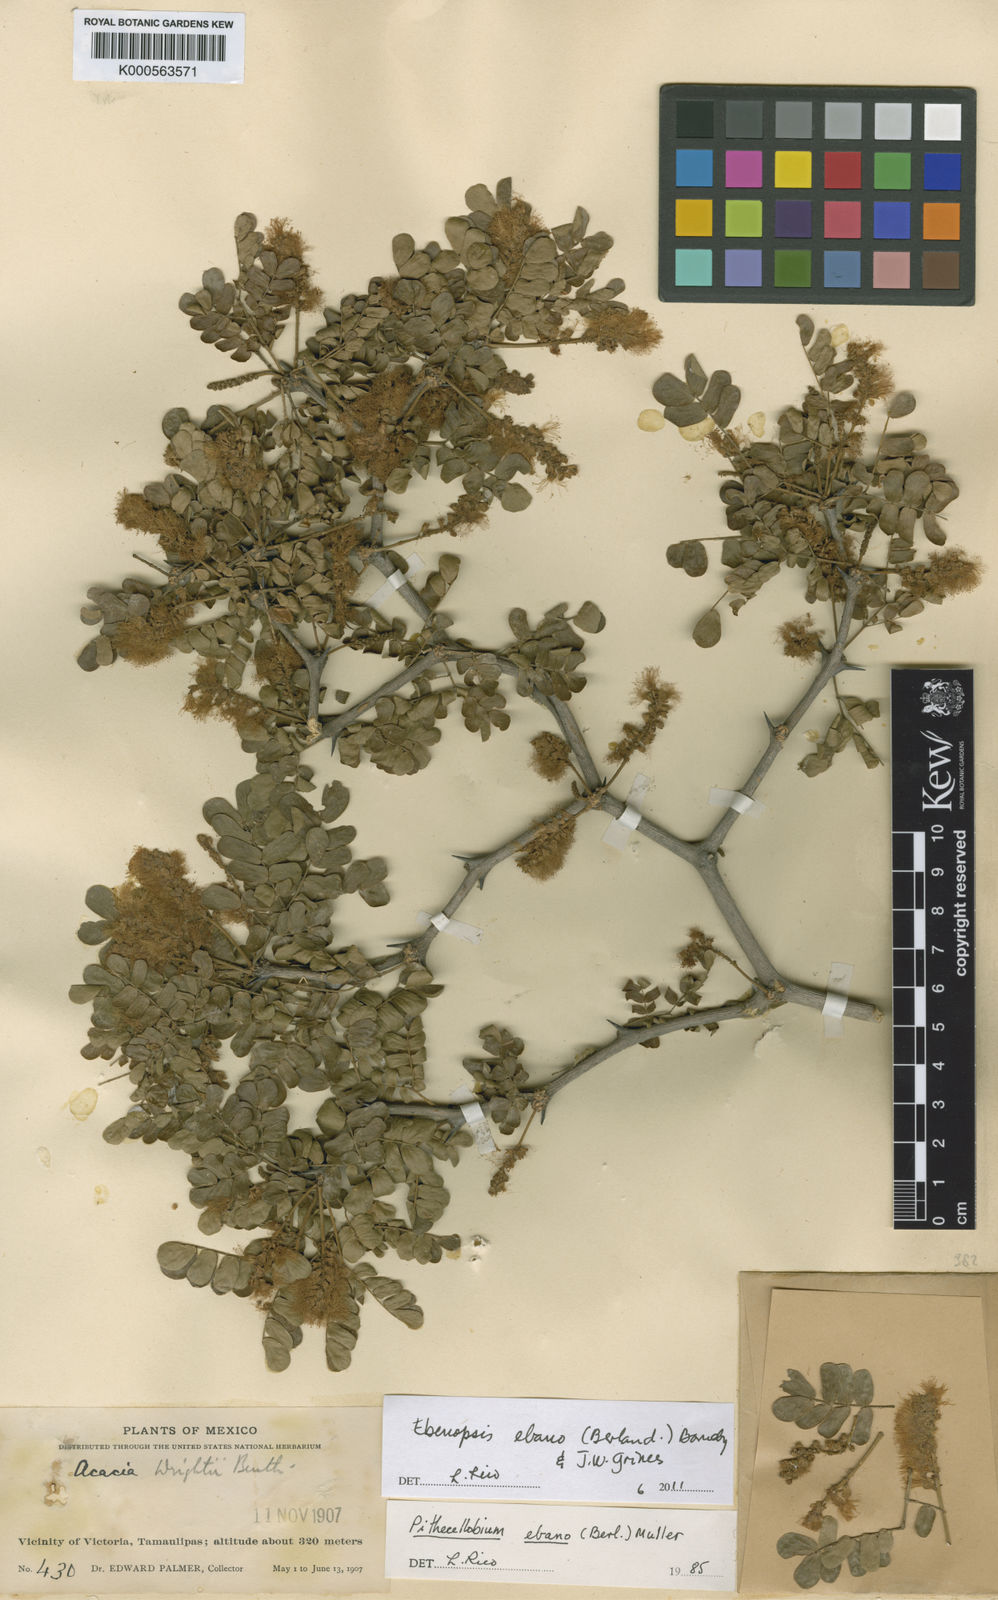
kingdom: Plantae
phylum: Tracheophyta
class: Magnoliopsida
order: Fabales
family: Fabaceae
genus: Ebenopsis
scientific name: Ebenopsis ebano
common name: Ebony blackbead
